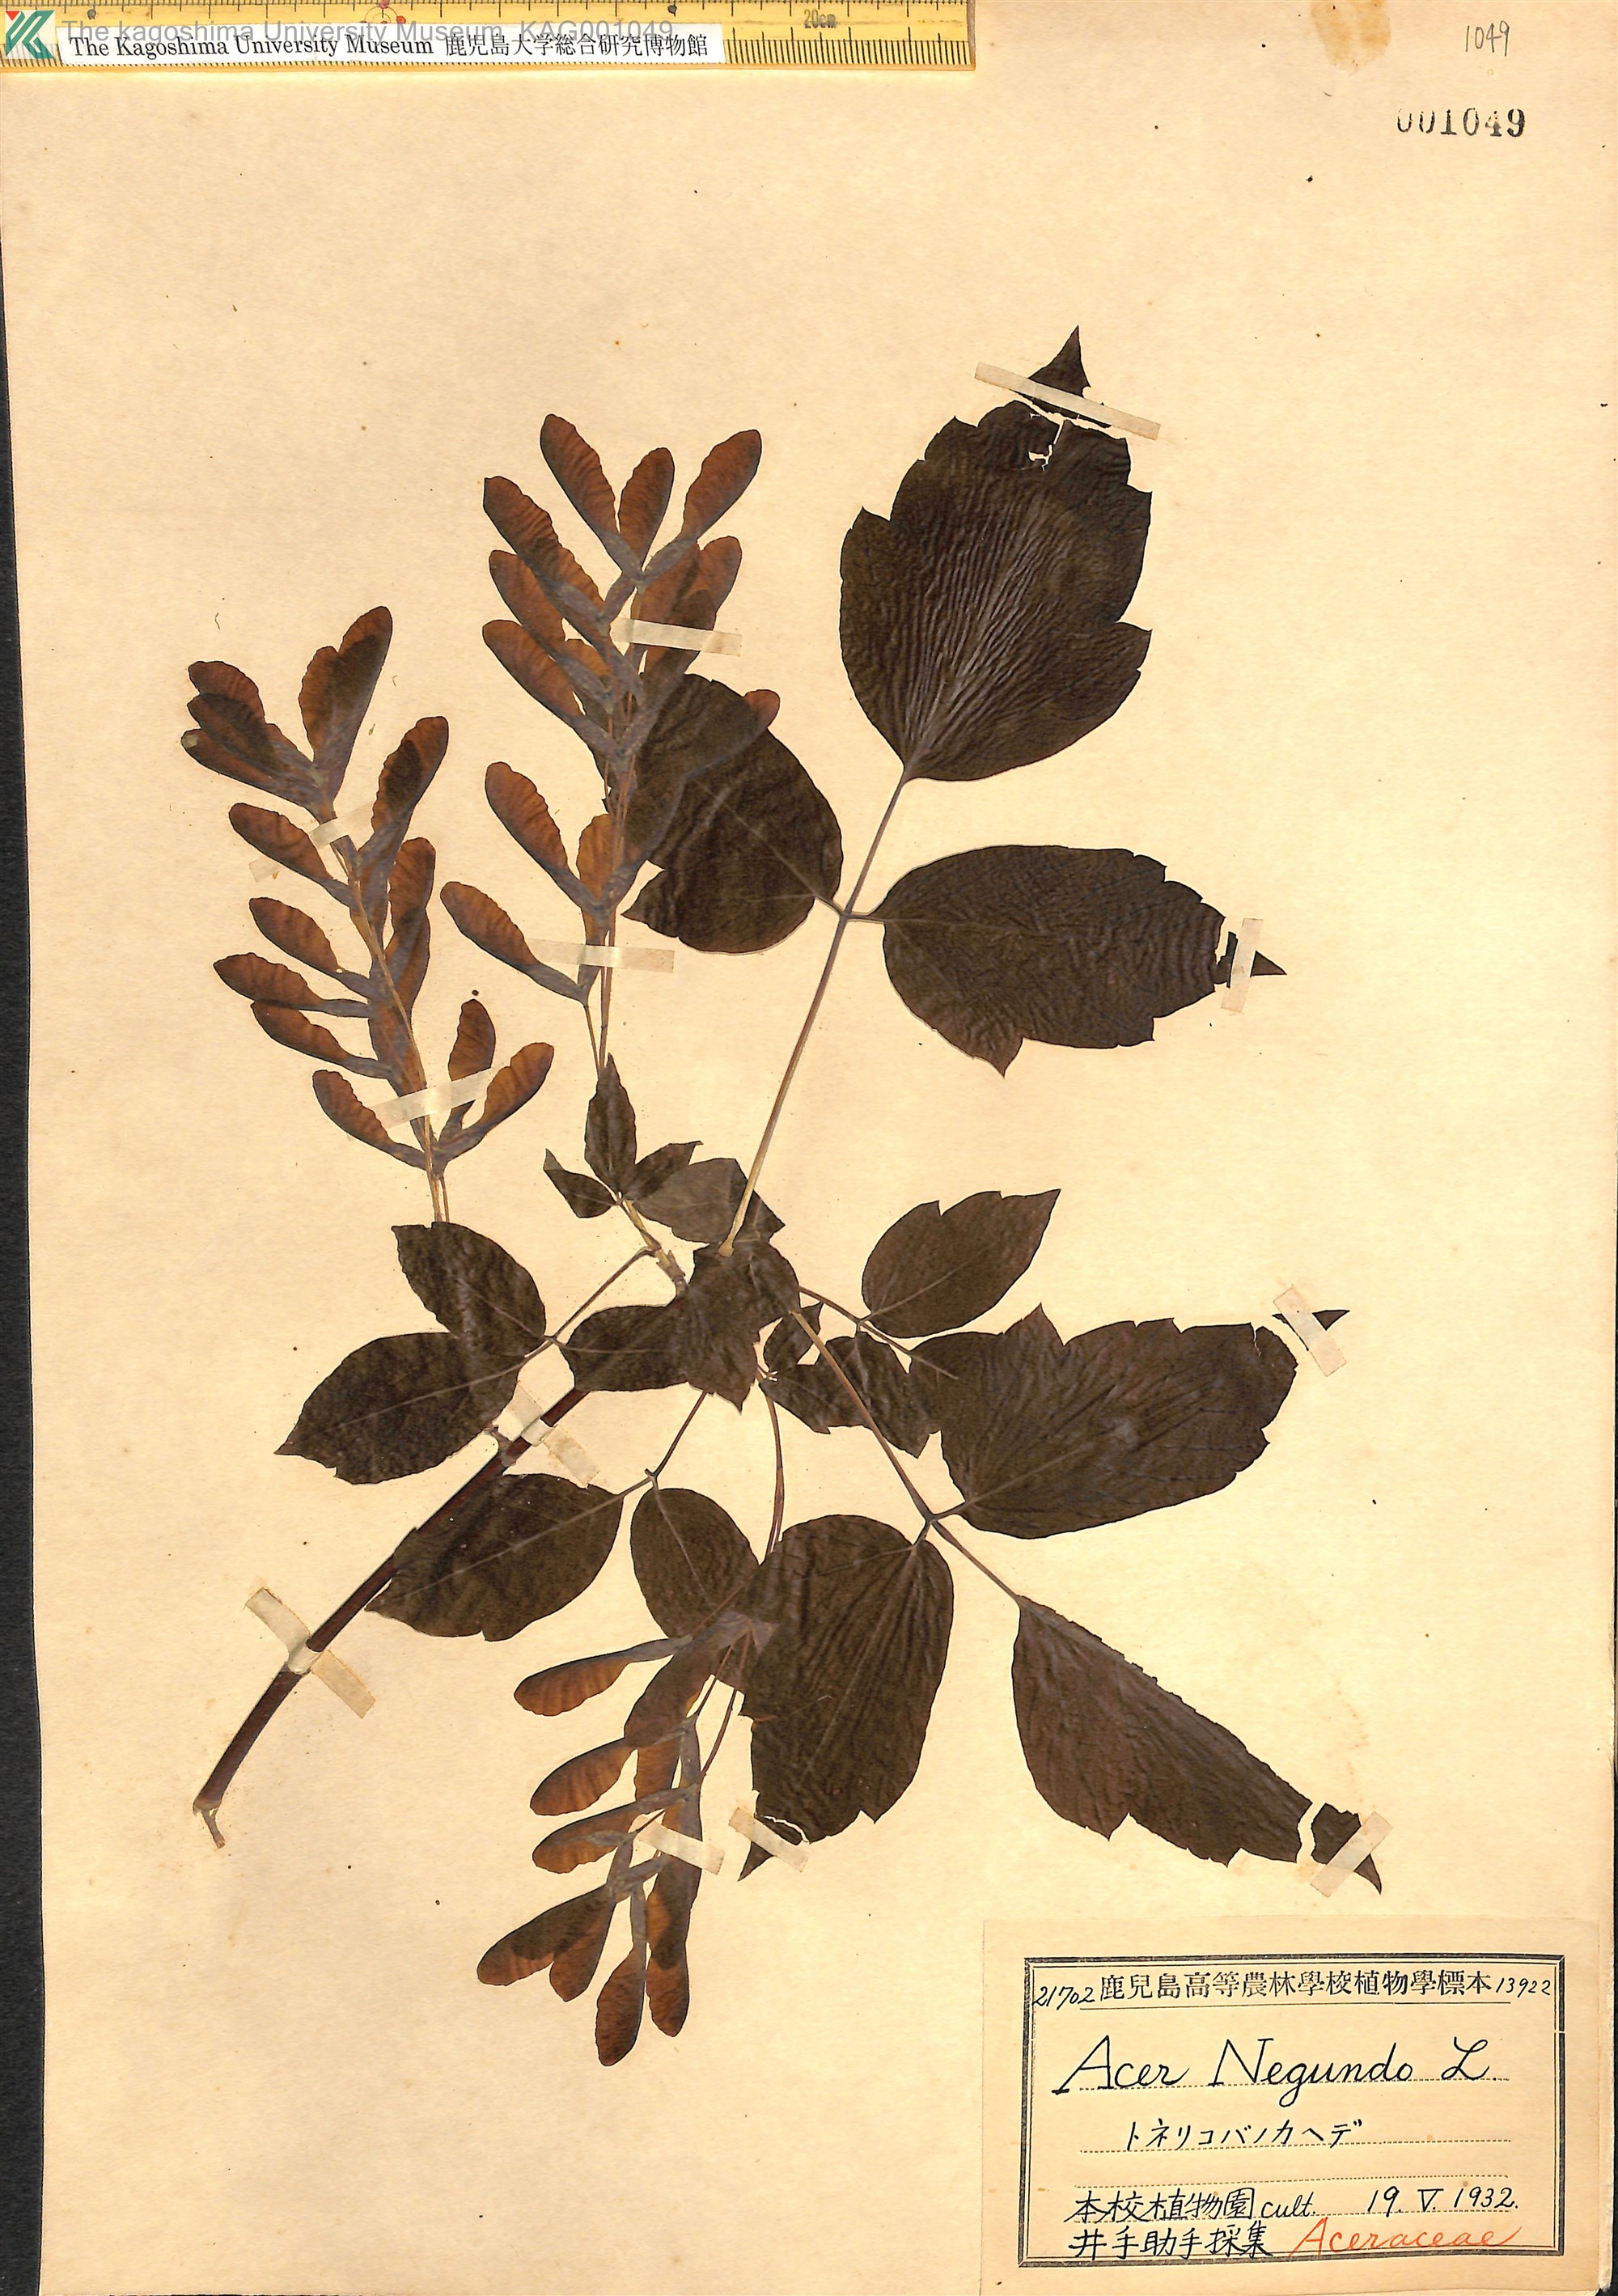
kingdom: Plantae
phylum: Tracheophyta
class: Magnoliopsida
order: Sapindales
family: Sapindaceae
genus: Acer
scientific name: Acer negundo
